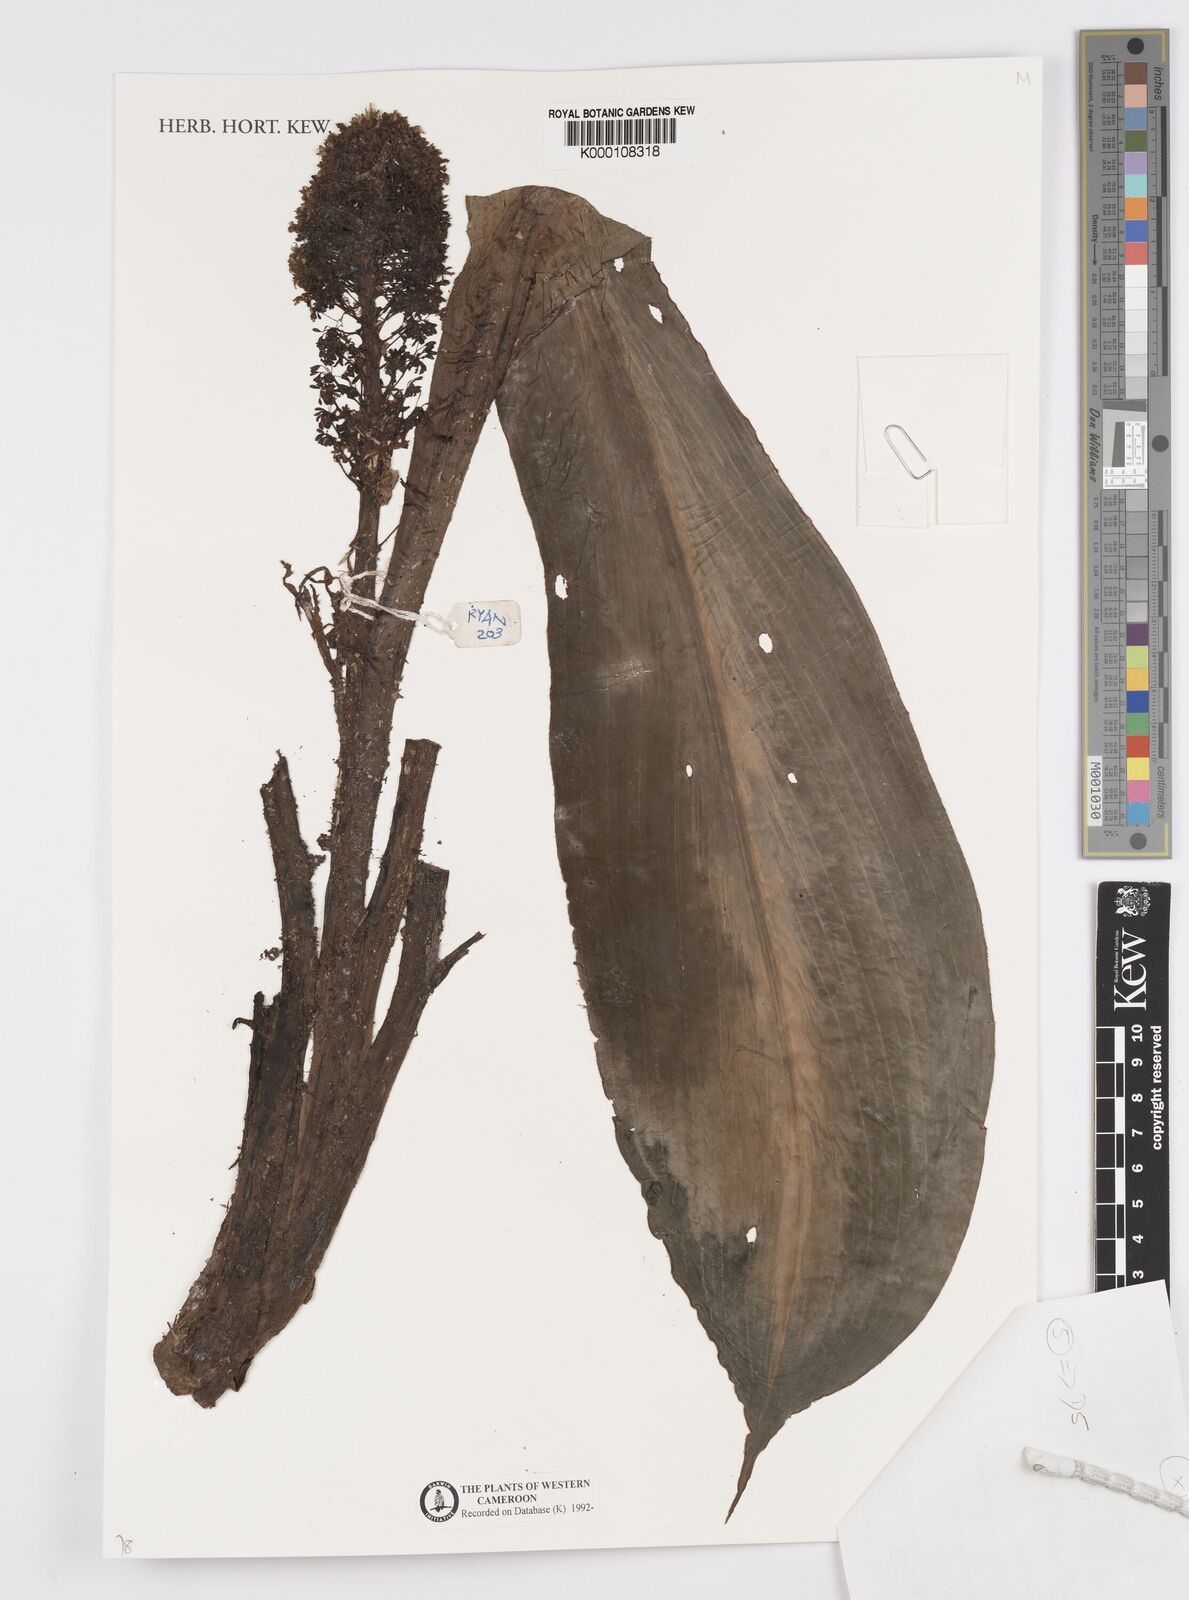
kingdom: Plantae
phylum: Tracheophyta
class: Liliopsida
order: Commelinales
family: Commelinaceae
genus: Palisota
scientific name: Palisota barteri
